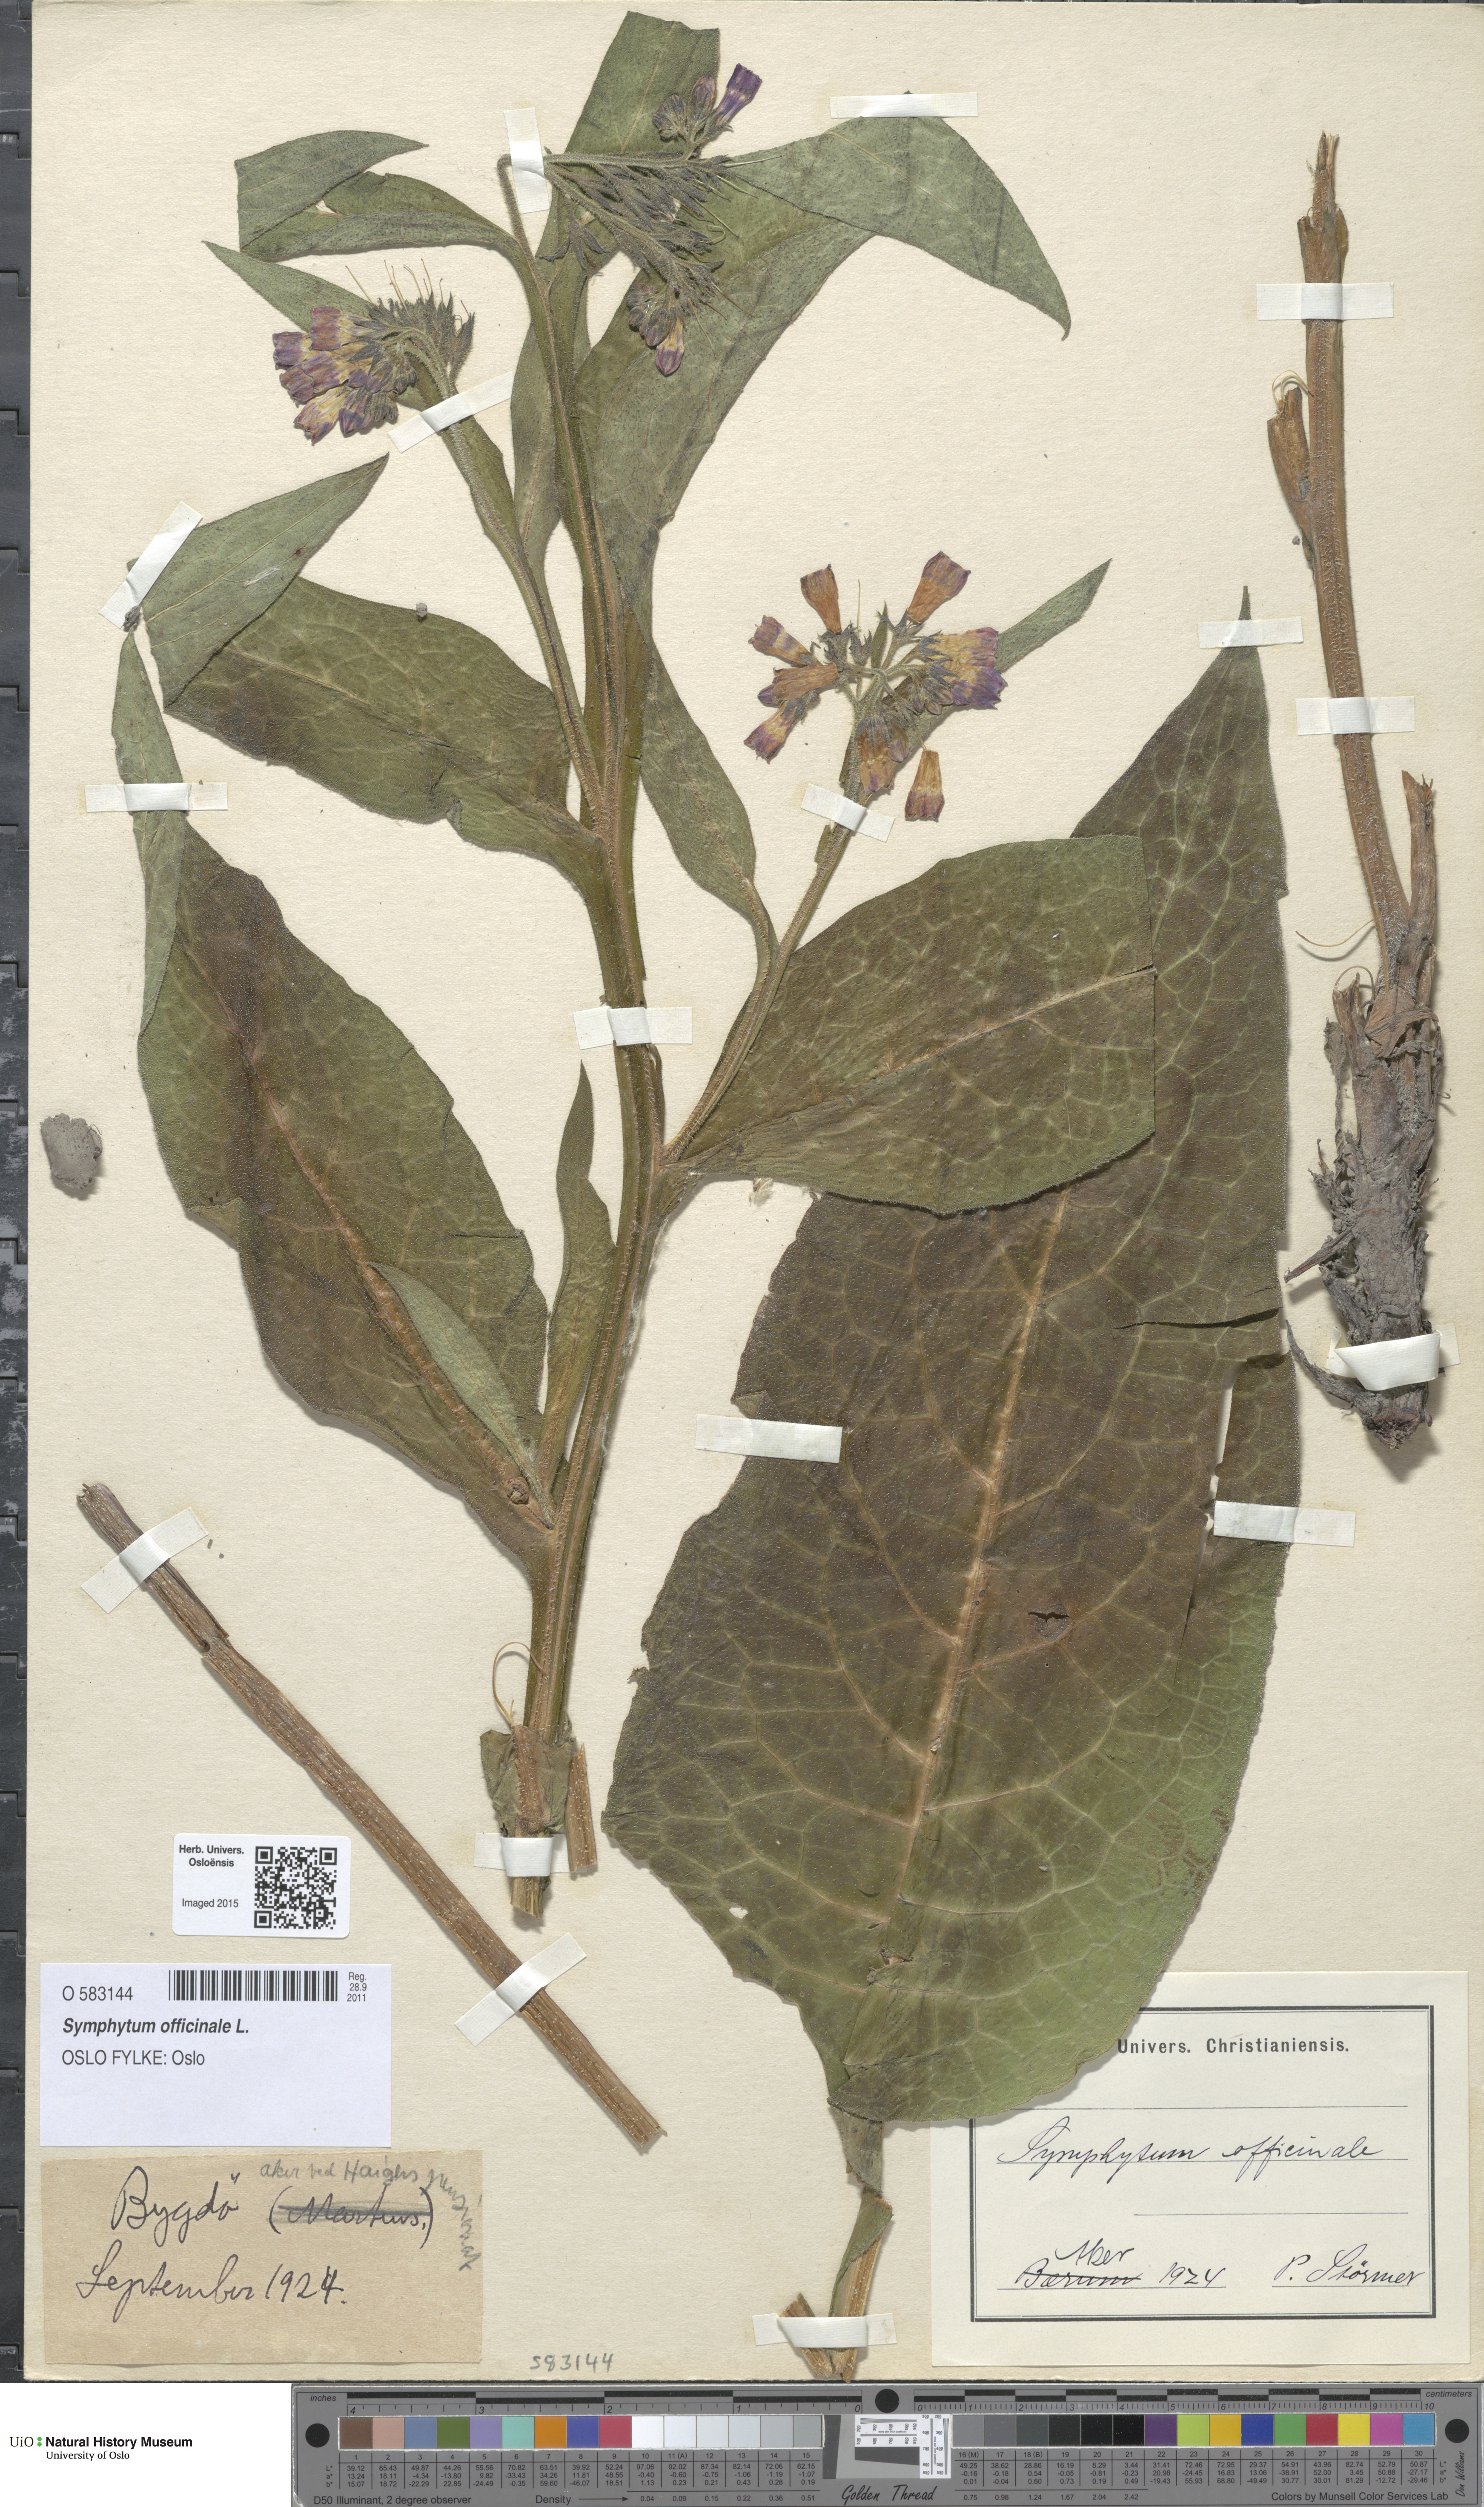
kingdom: Plantae
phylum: Tracheophyta
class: Magnoliopsida
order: Boraginales
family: Boraginaceae
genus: Symphytum
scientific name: Symphytum officinale
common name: Common comfrey
